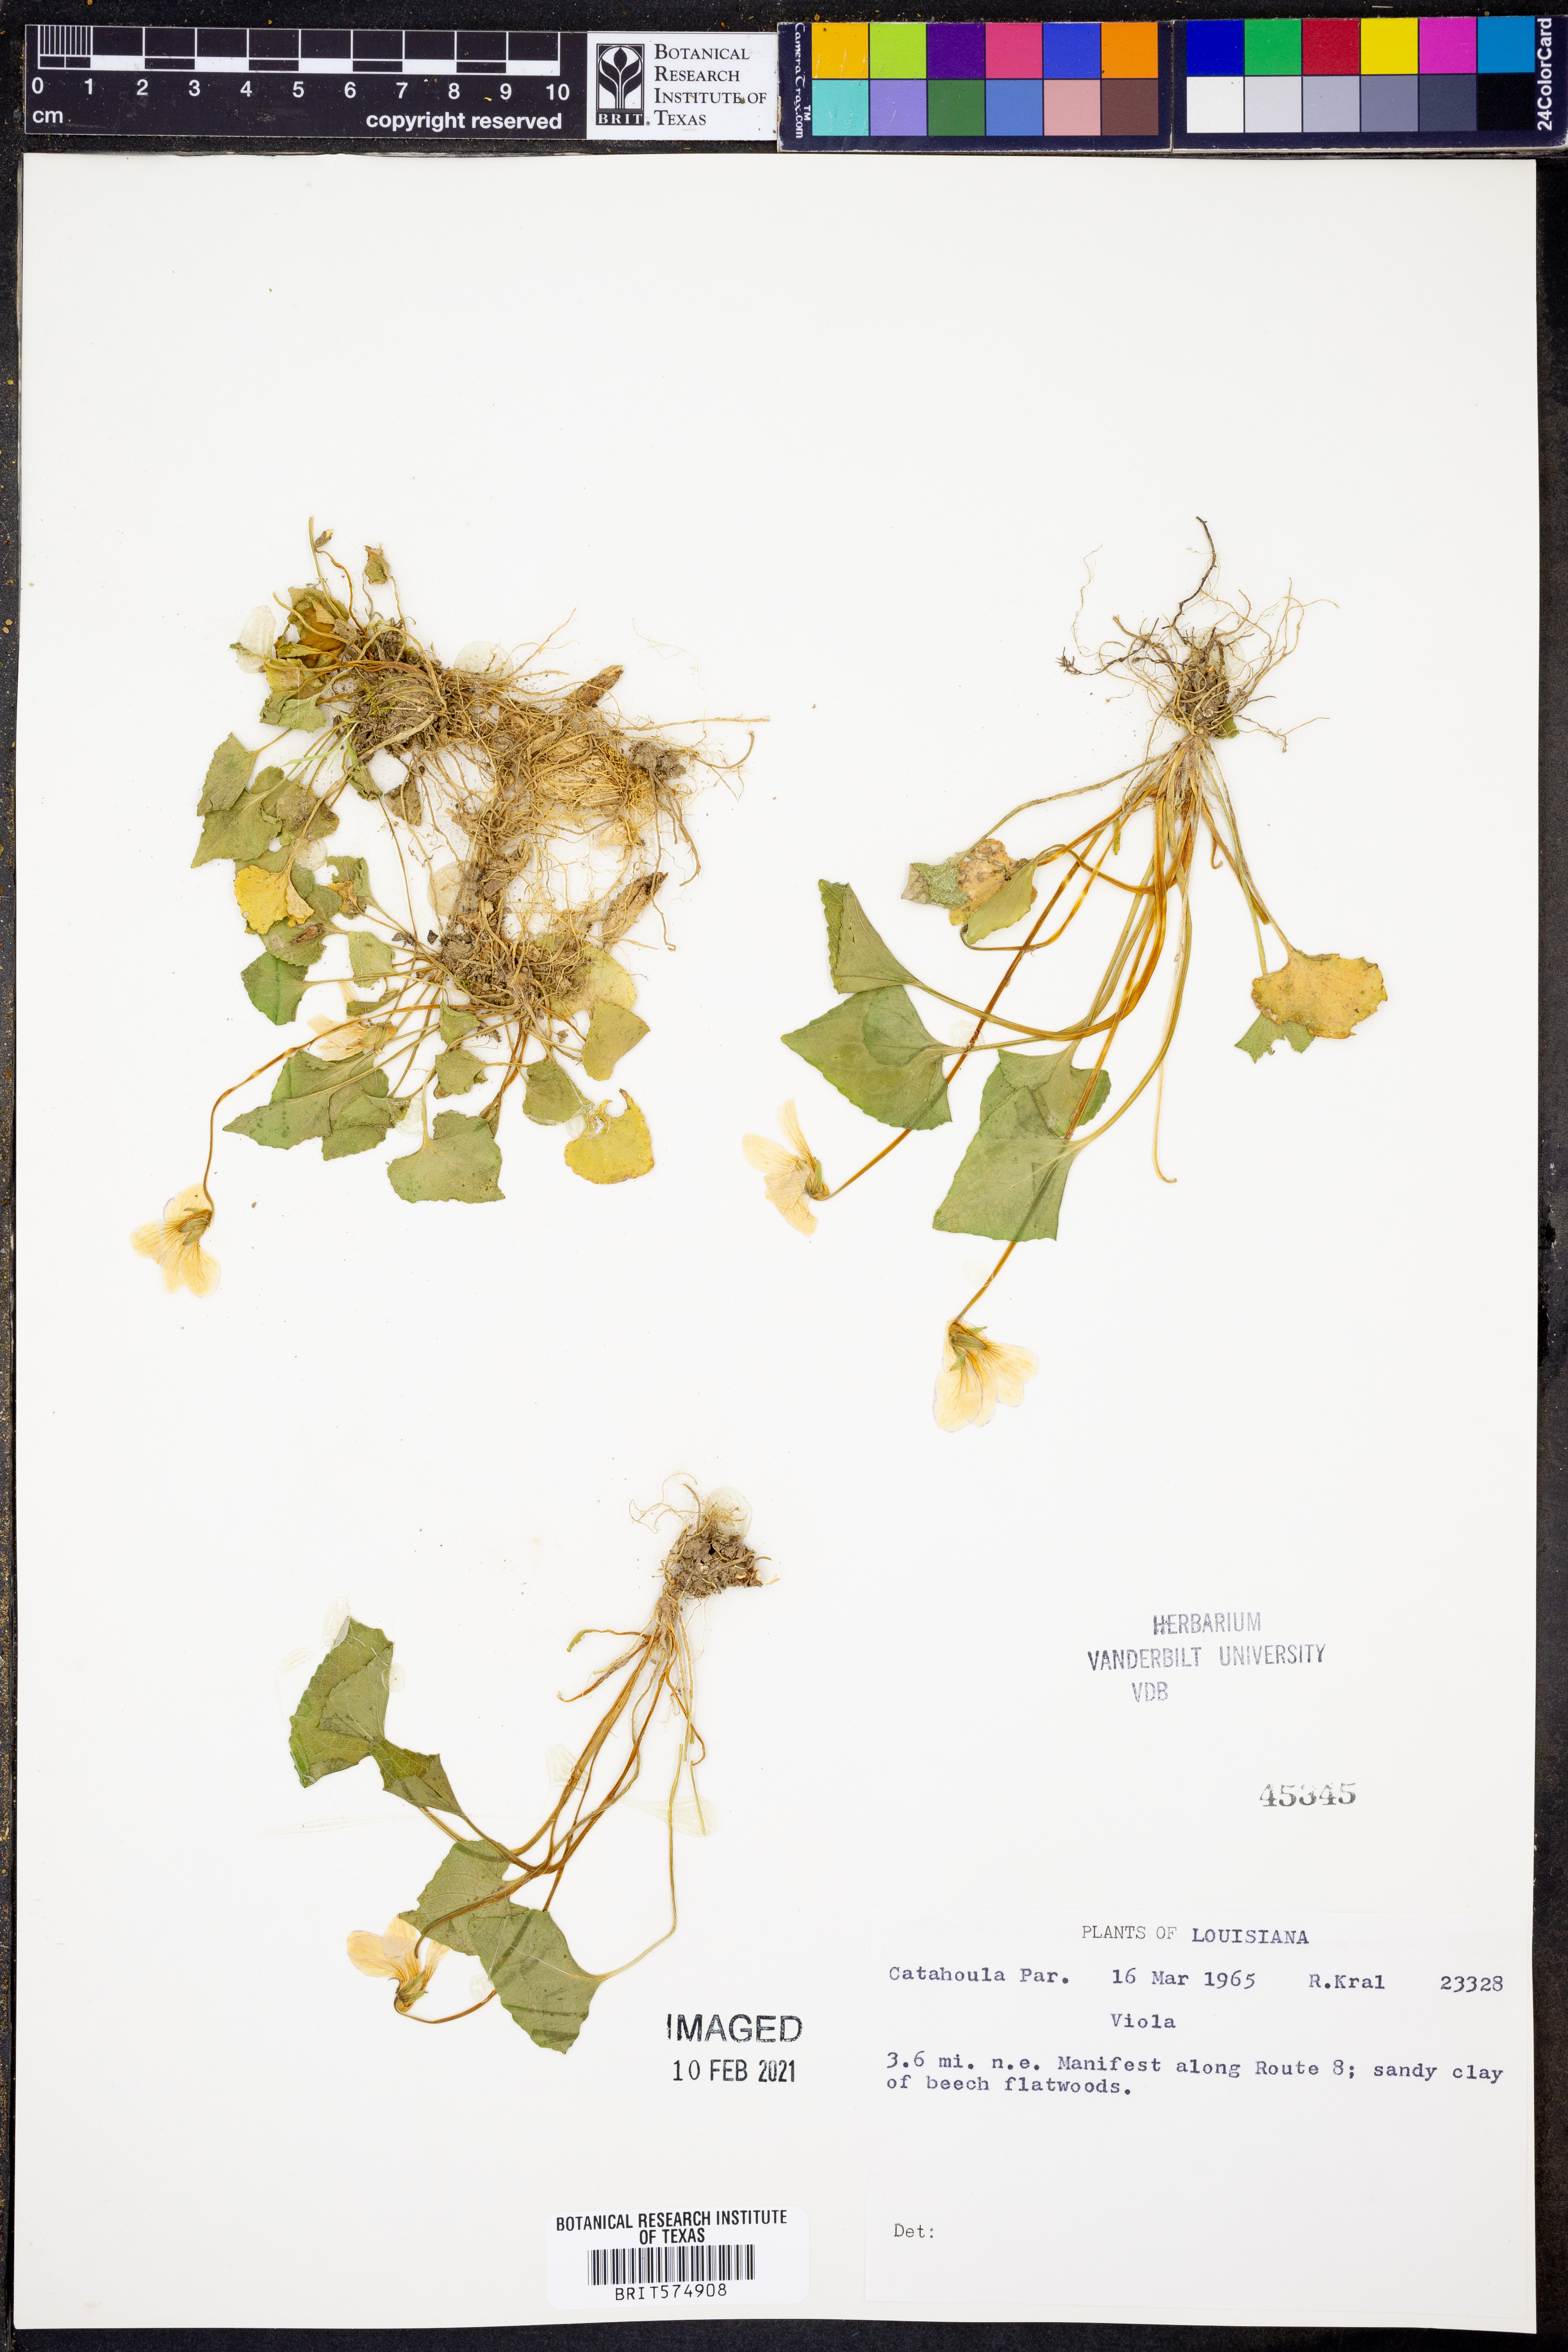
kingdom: Plantae
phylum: Tracheophyta
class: Magnoliopsida
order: Malpighiales
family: Violaceae
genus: Viola
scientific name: Viola
